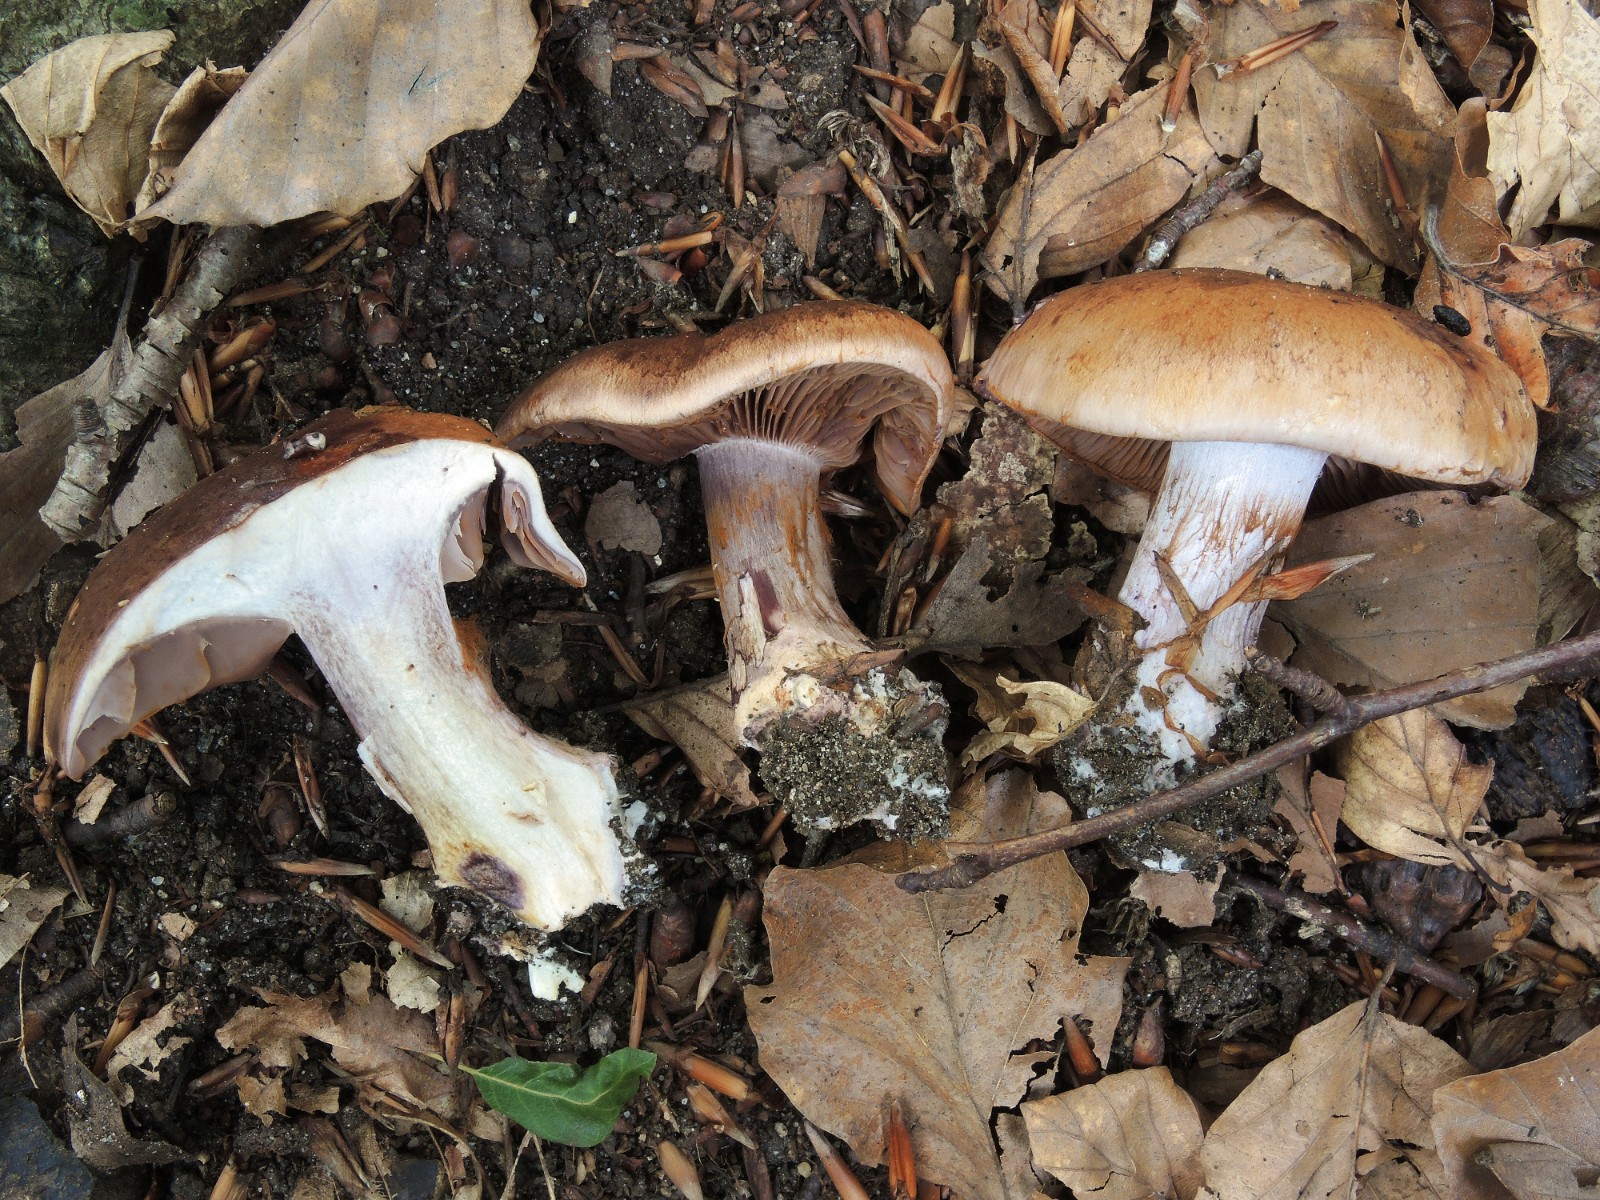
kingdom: Fungi
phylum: Basidiomycota
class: Agaricomycetes
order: Agaricales
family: Cortinariaceae
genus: Thaxterogaster
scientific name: Thaxterogaster subpurpurascens
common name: mørkblånende slørhat
